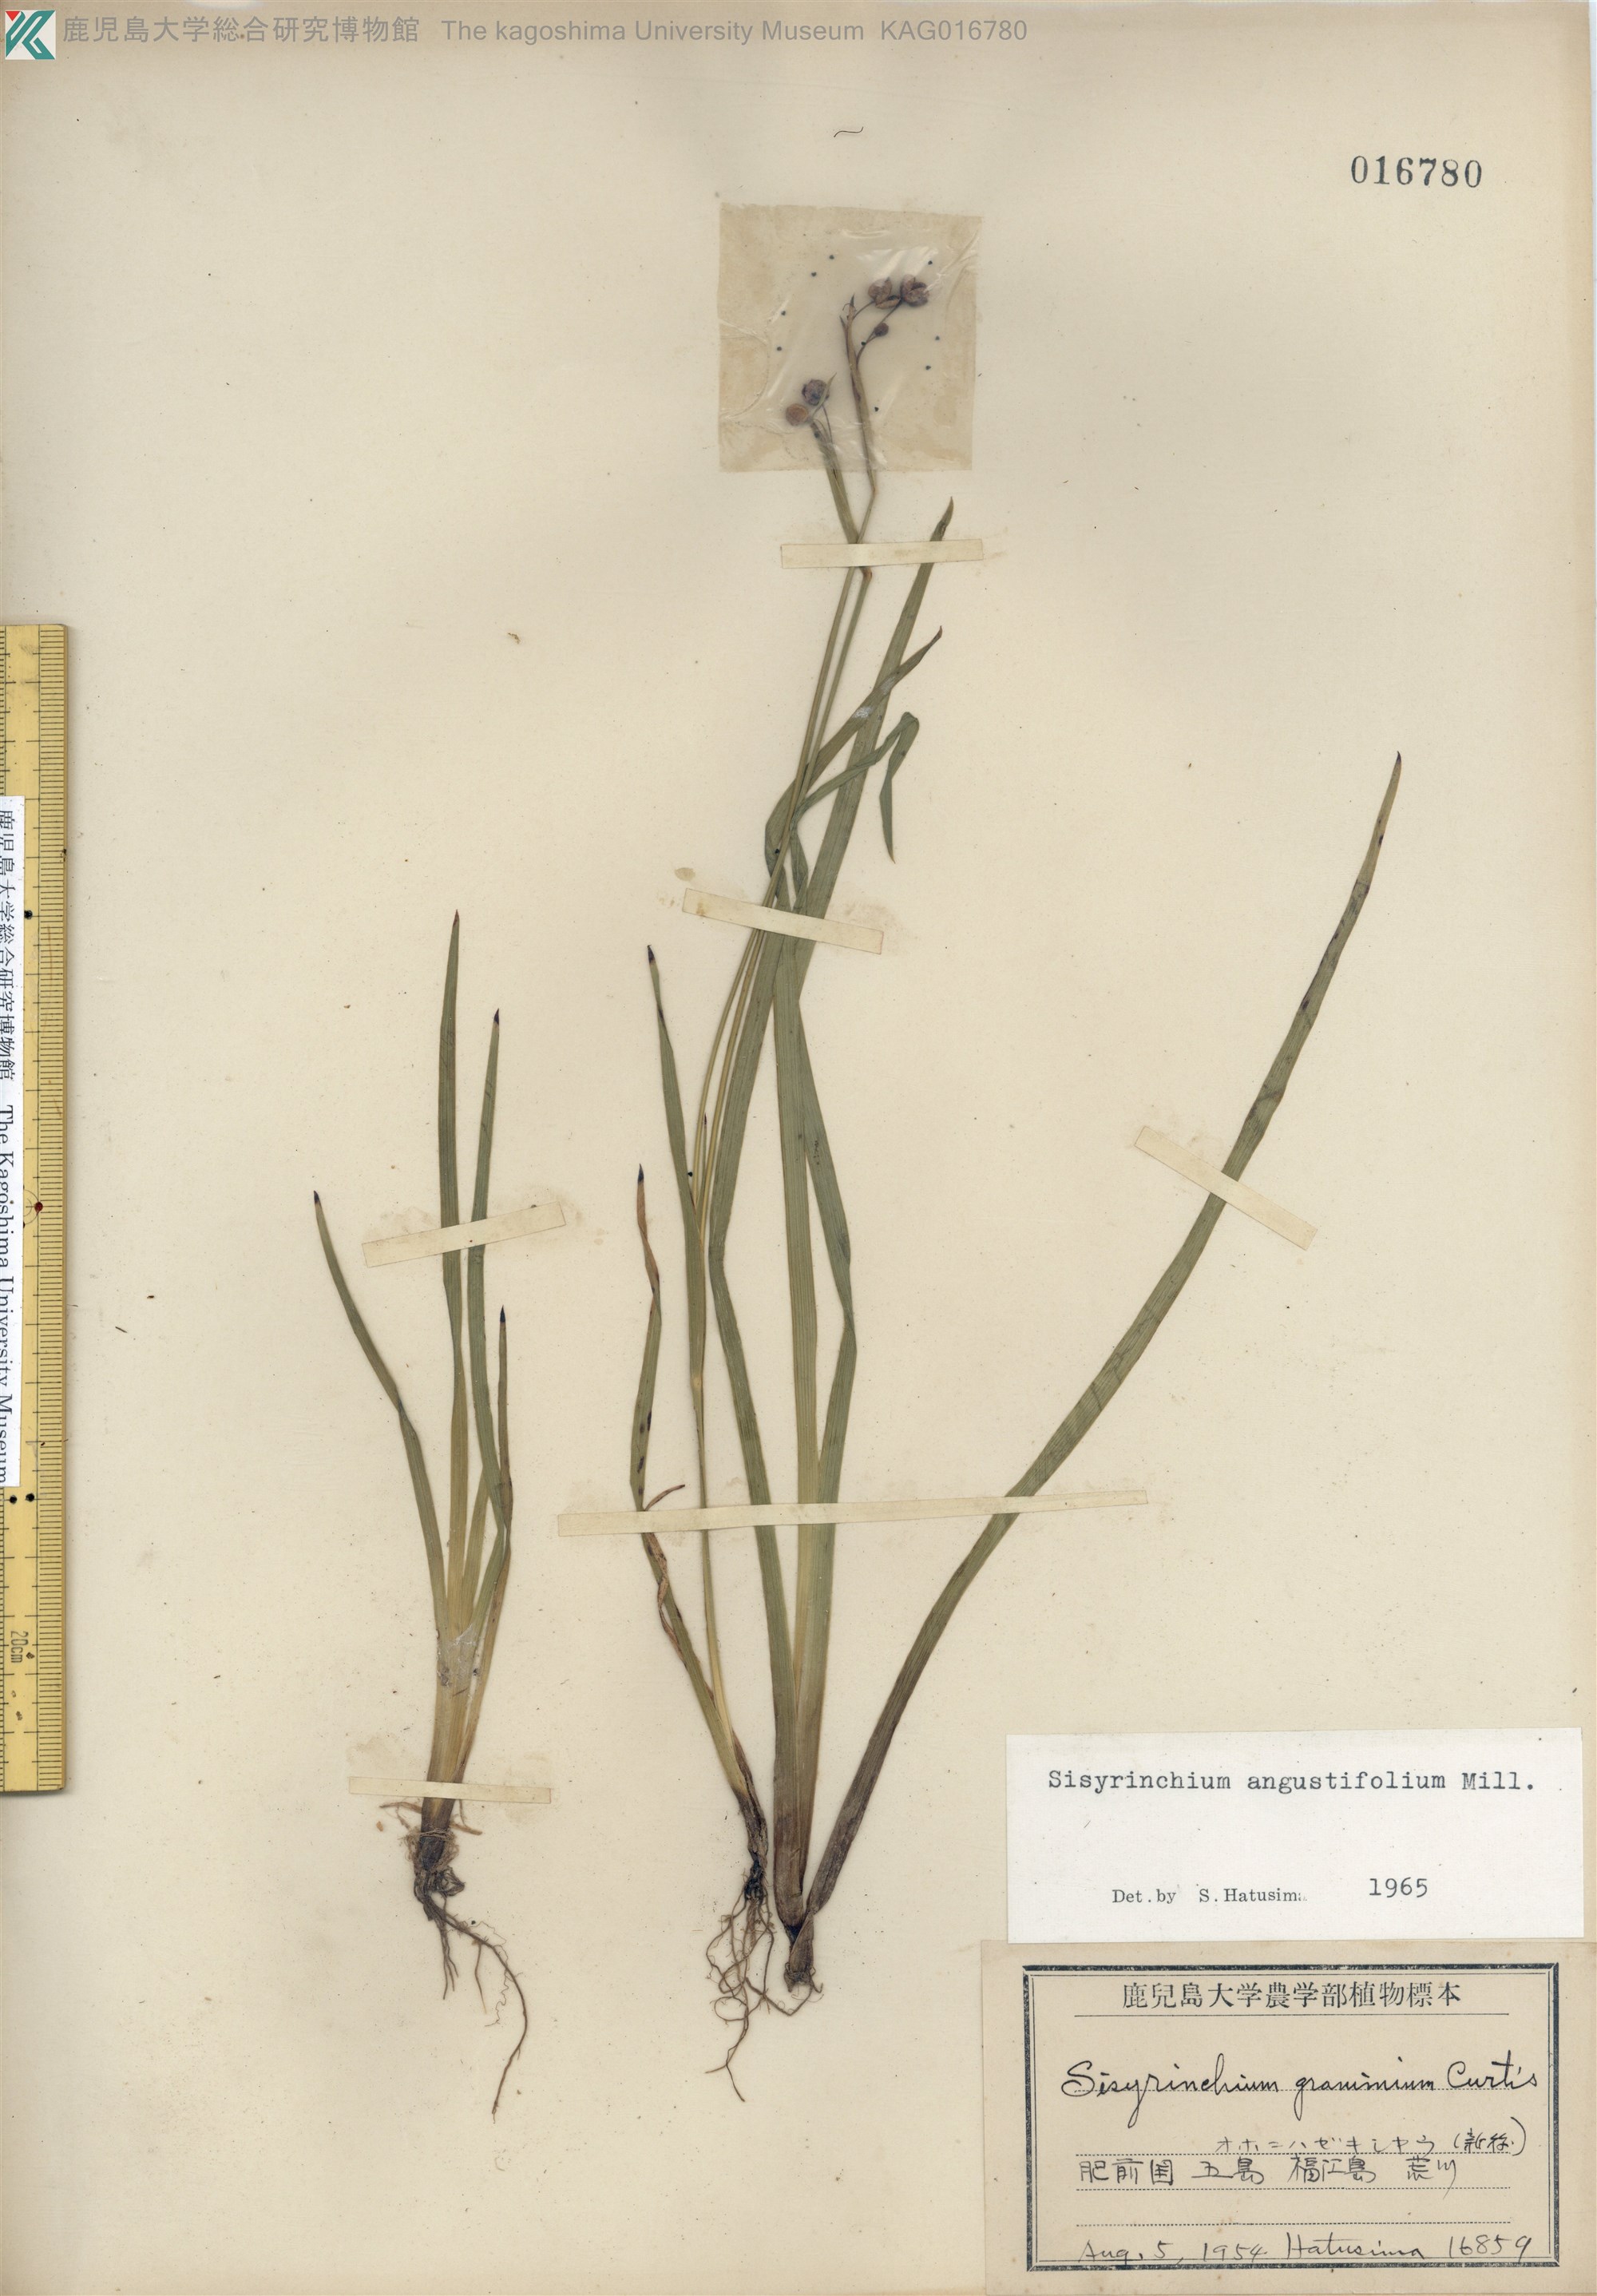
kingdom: Plantae
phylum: Tracheophyta
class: Liliopsida
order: Asparagales
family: Iridaceae
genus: Sisyrinchium
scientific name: Sisyrinchium micranthum
